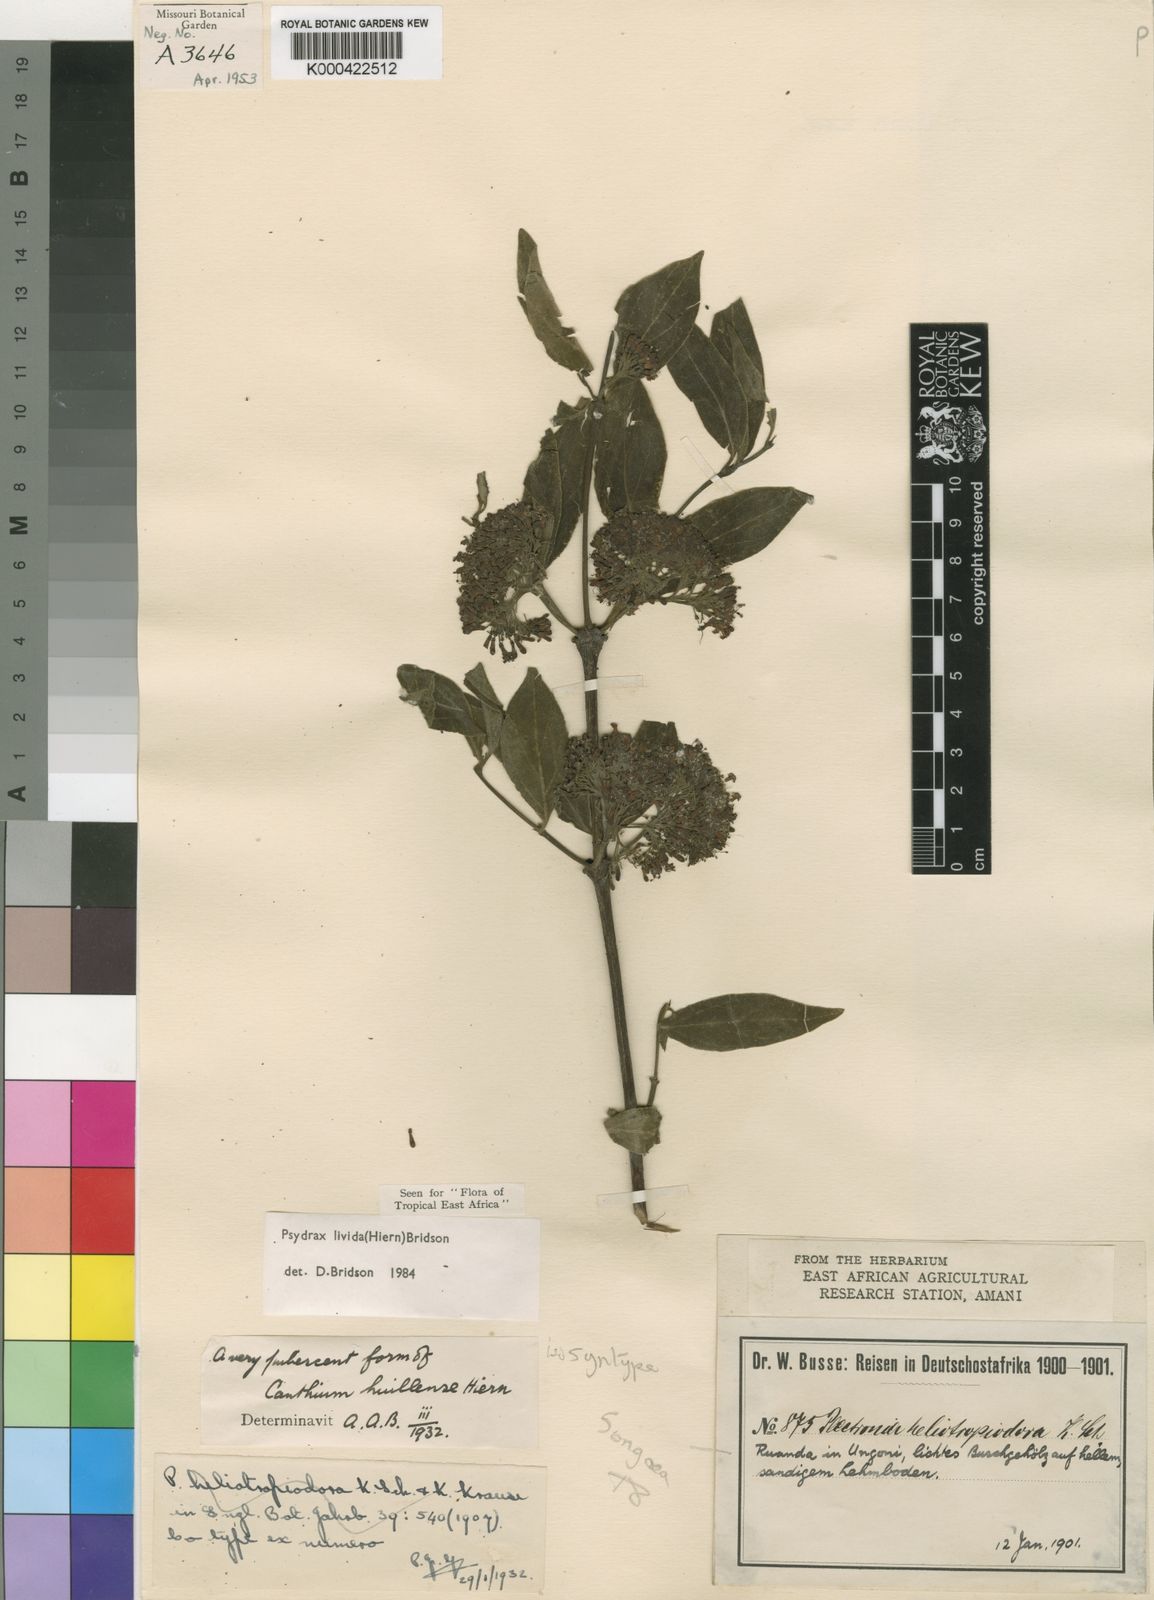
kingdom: Plantae
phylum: Tracheophyta
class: Magnoliopsida
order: Gentianales
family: Rubiaceae
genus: Psydrax
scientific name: Psydrax lividus
